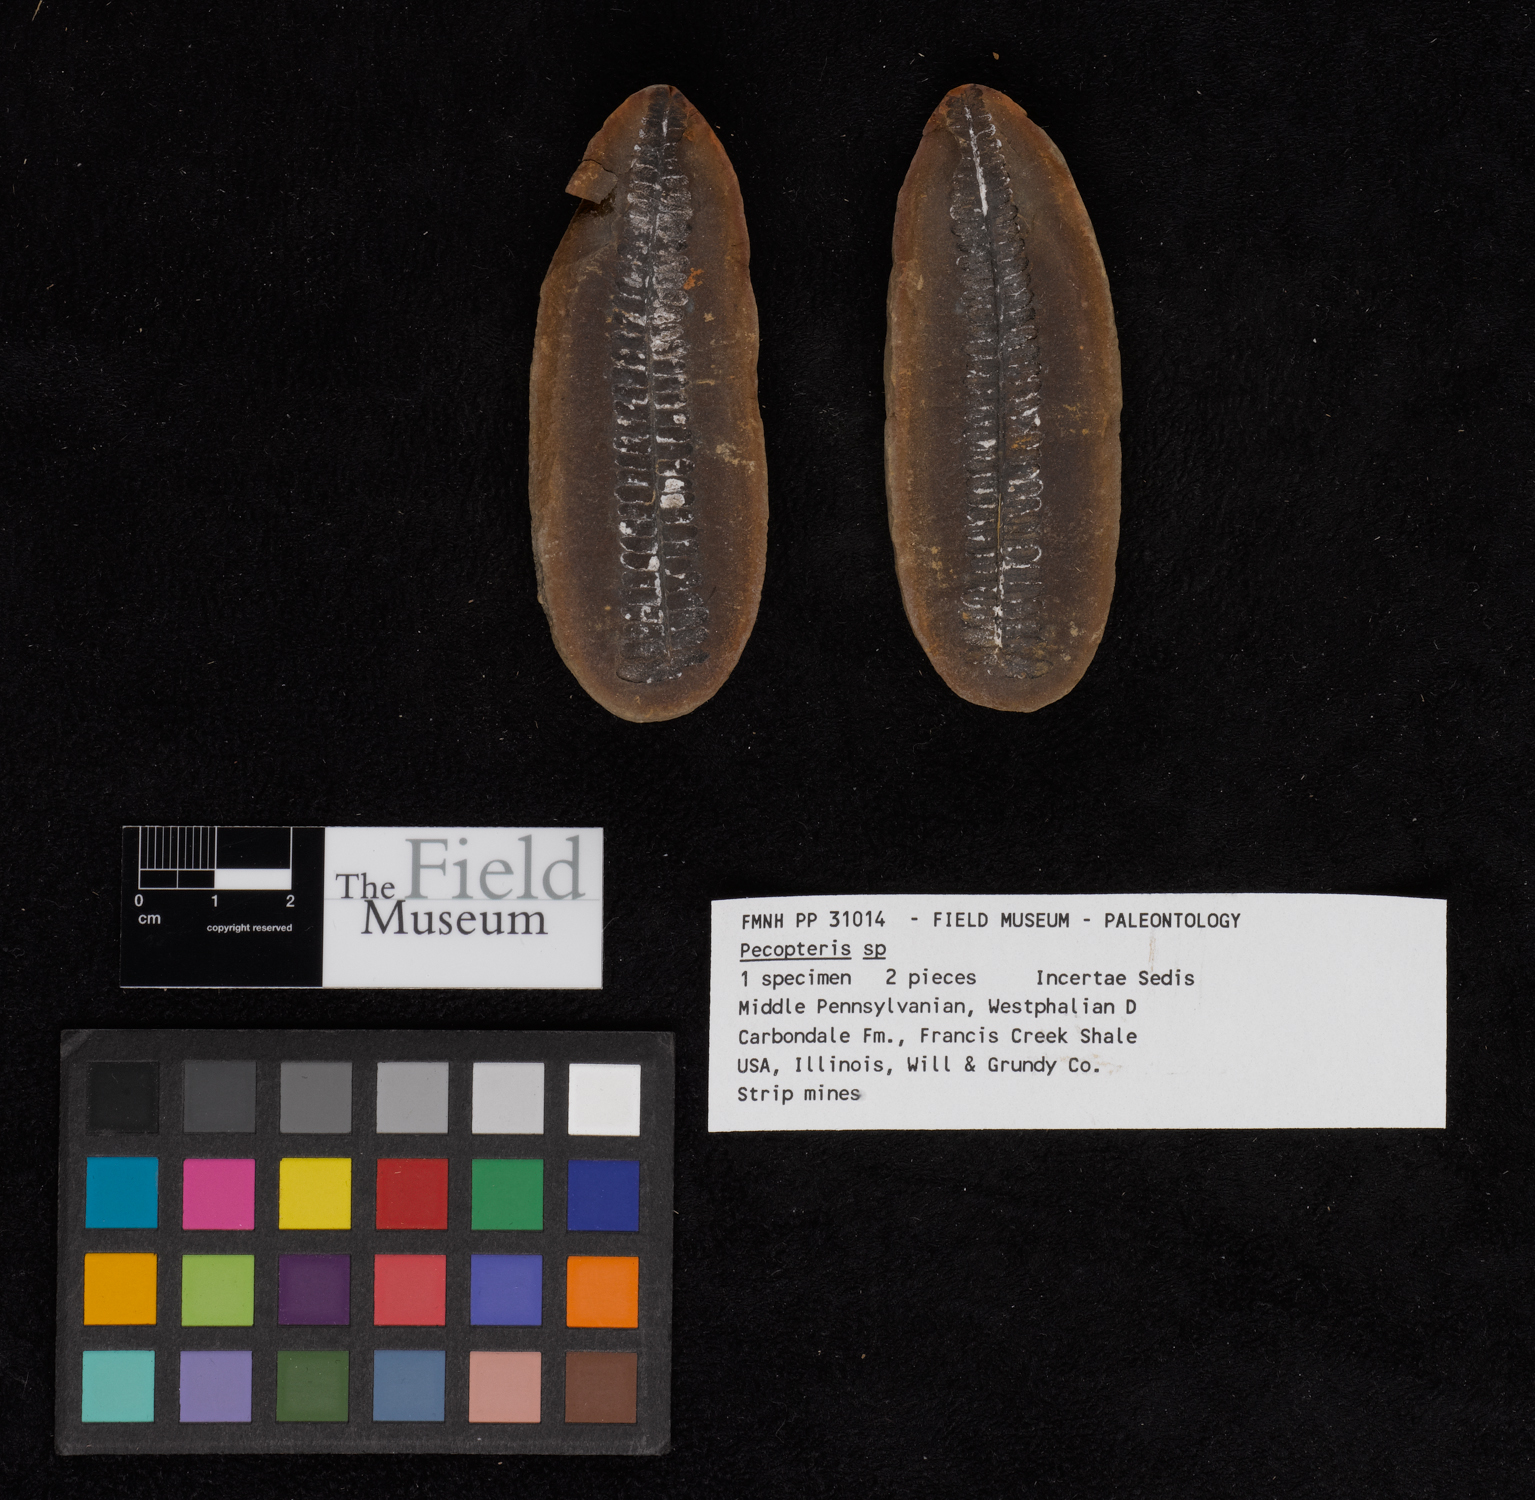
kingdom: Plantae
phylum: Tracheophyta
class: Polypodiopsida
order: Marattiales
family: Asterothecaceae
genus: Pecopteris
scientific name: Pecopteris
